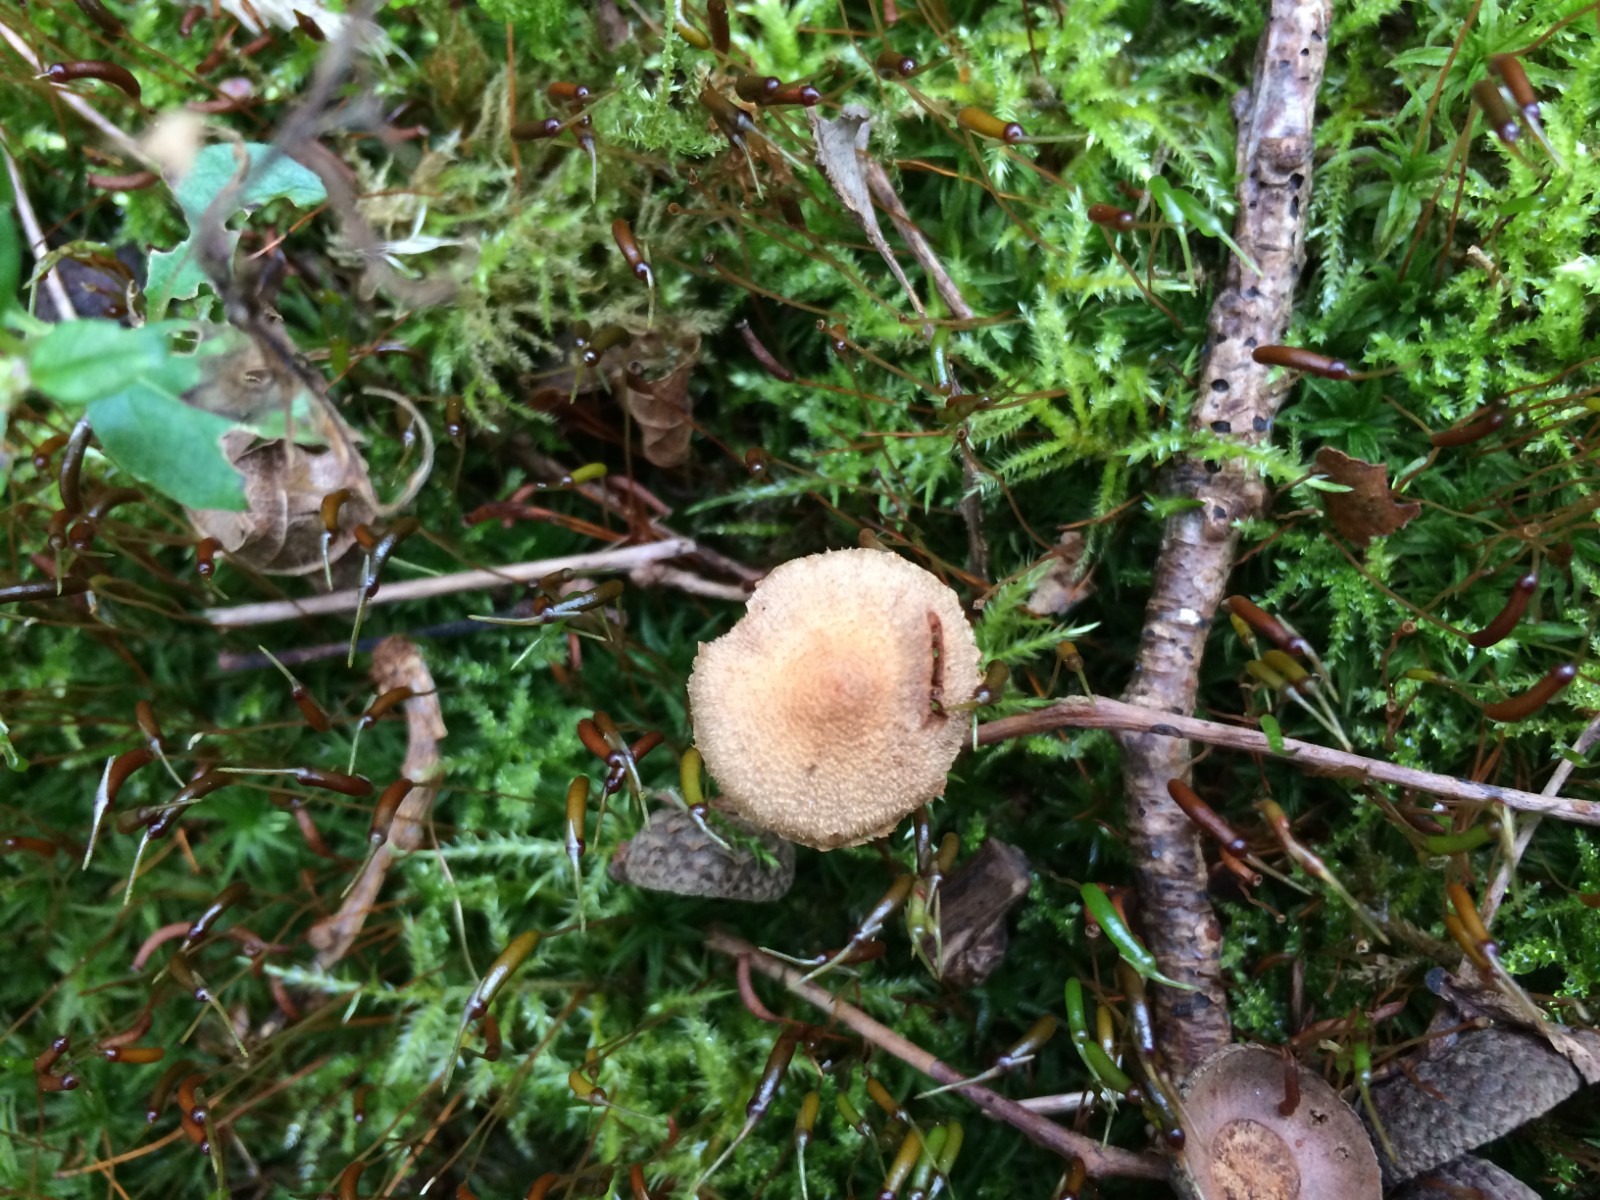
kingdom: Fungi
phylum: Basidiomycota
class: Agaricomycetes
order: Agaricales
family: Cortinariaceae
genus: Cortinarius
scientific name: Cortinarius
